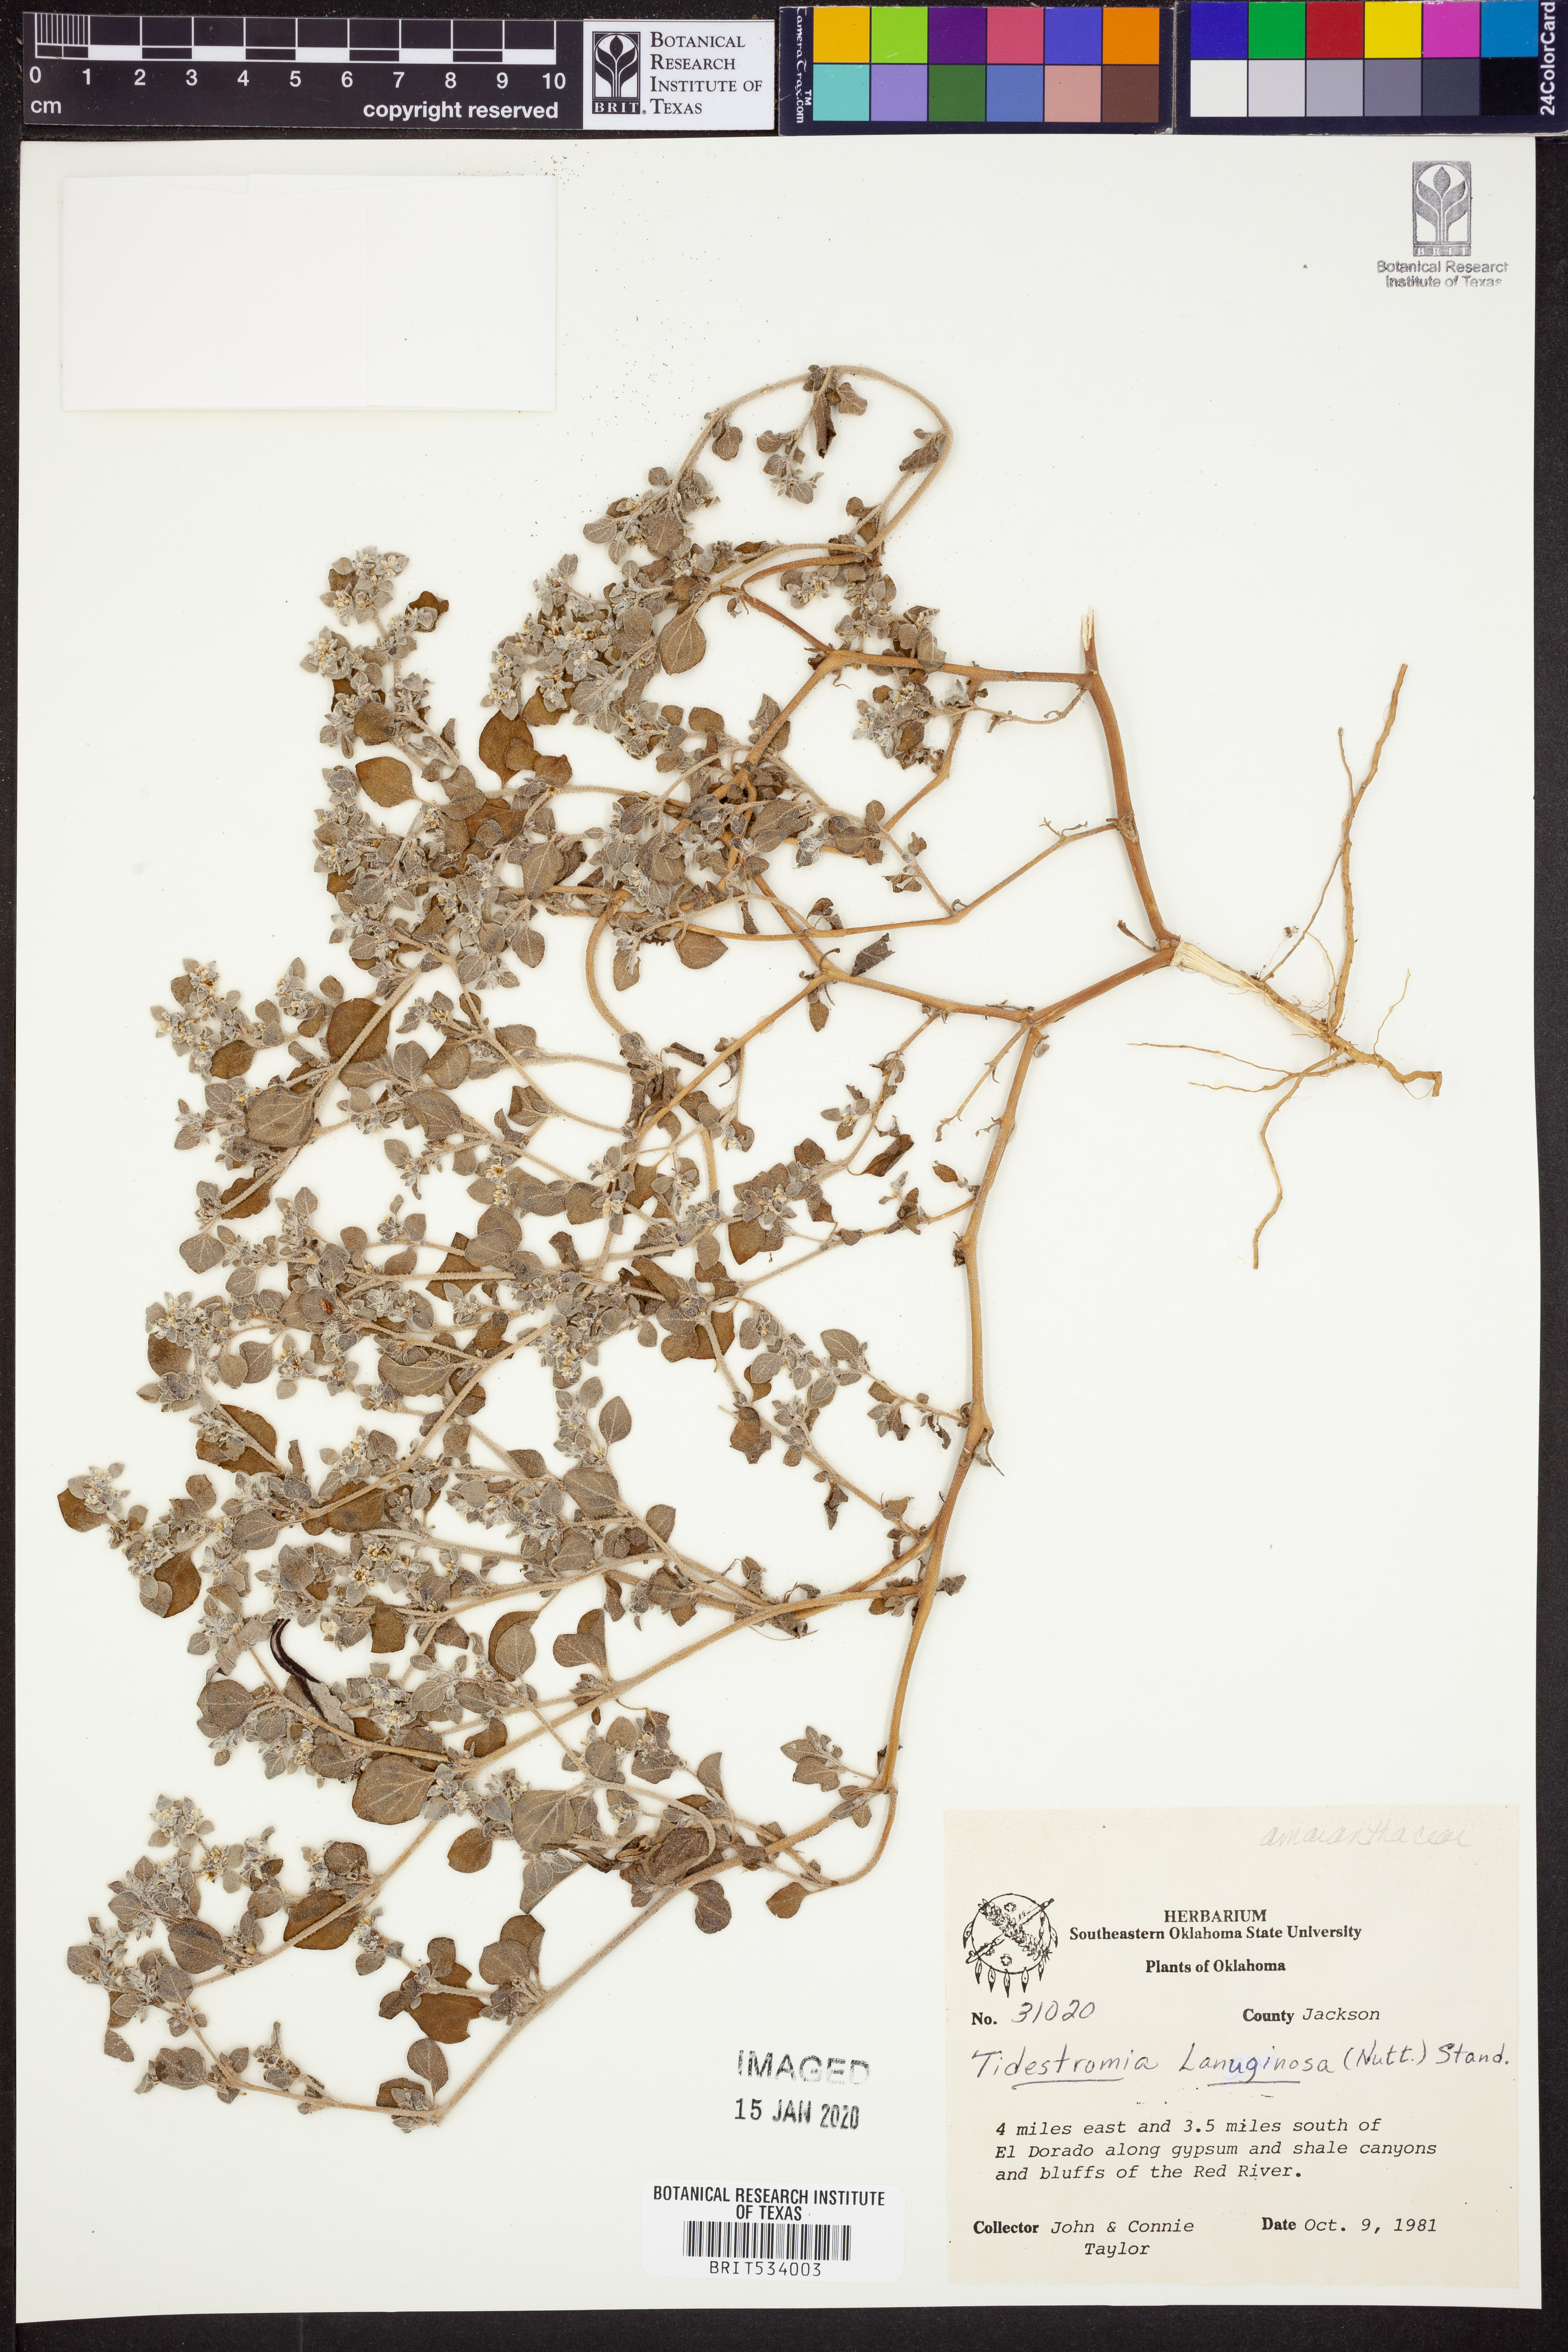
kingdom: Plantae
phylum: Tracheophyta
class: Magnoliopsida
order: Caryophyllales
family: Amaranthaceae
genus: Tidestromia
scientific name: Tidestromia lanuginosa
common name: Woolly tidestromia
